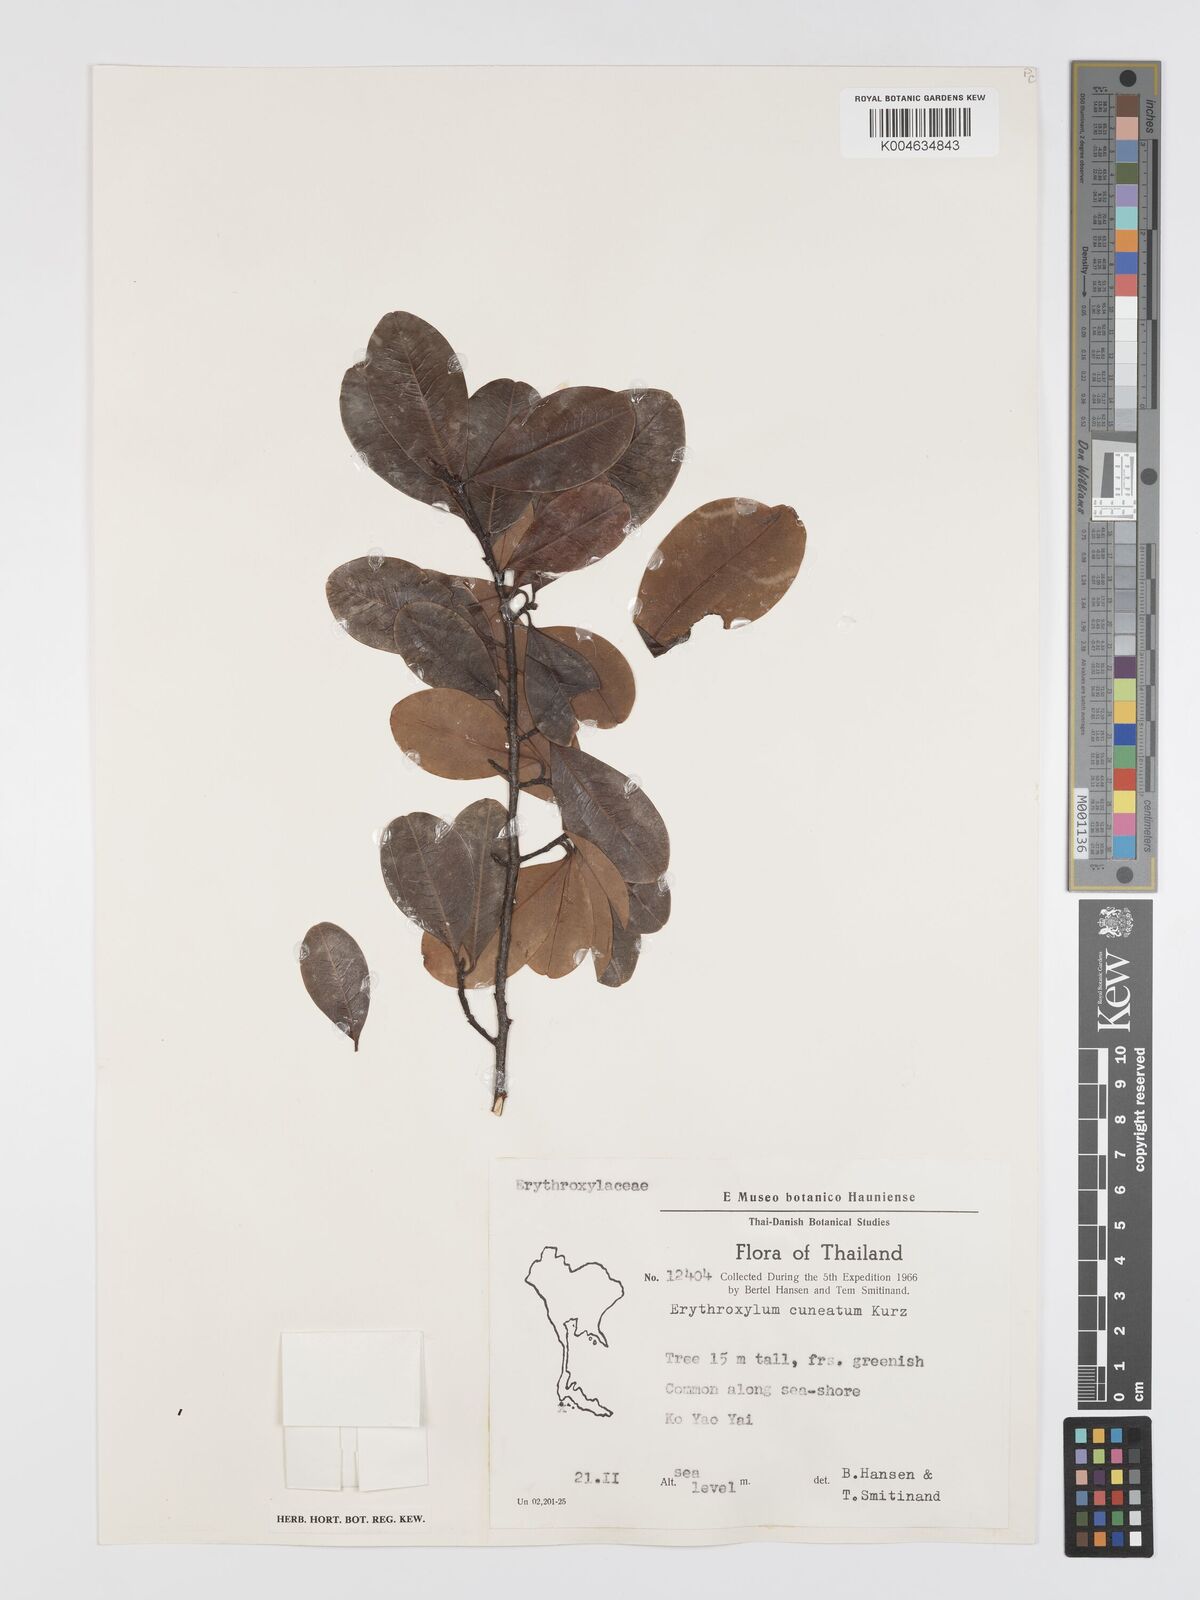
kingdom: Plantae
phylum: Tracheophyta
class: Magnoliopsida
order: Malpighiales
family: Erythroxylaceae
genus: Erythroxylum
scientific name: Erythroxylum cuneatum
